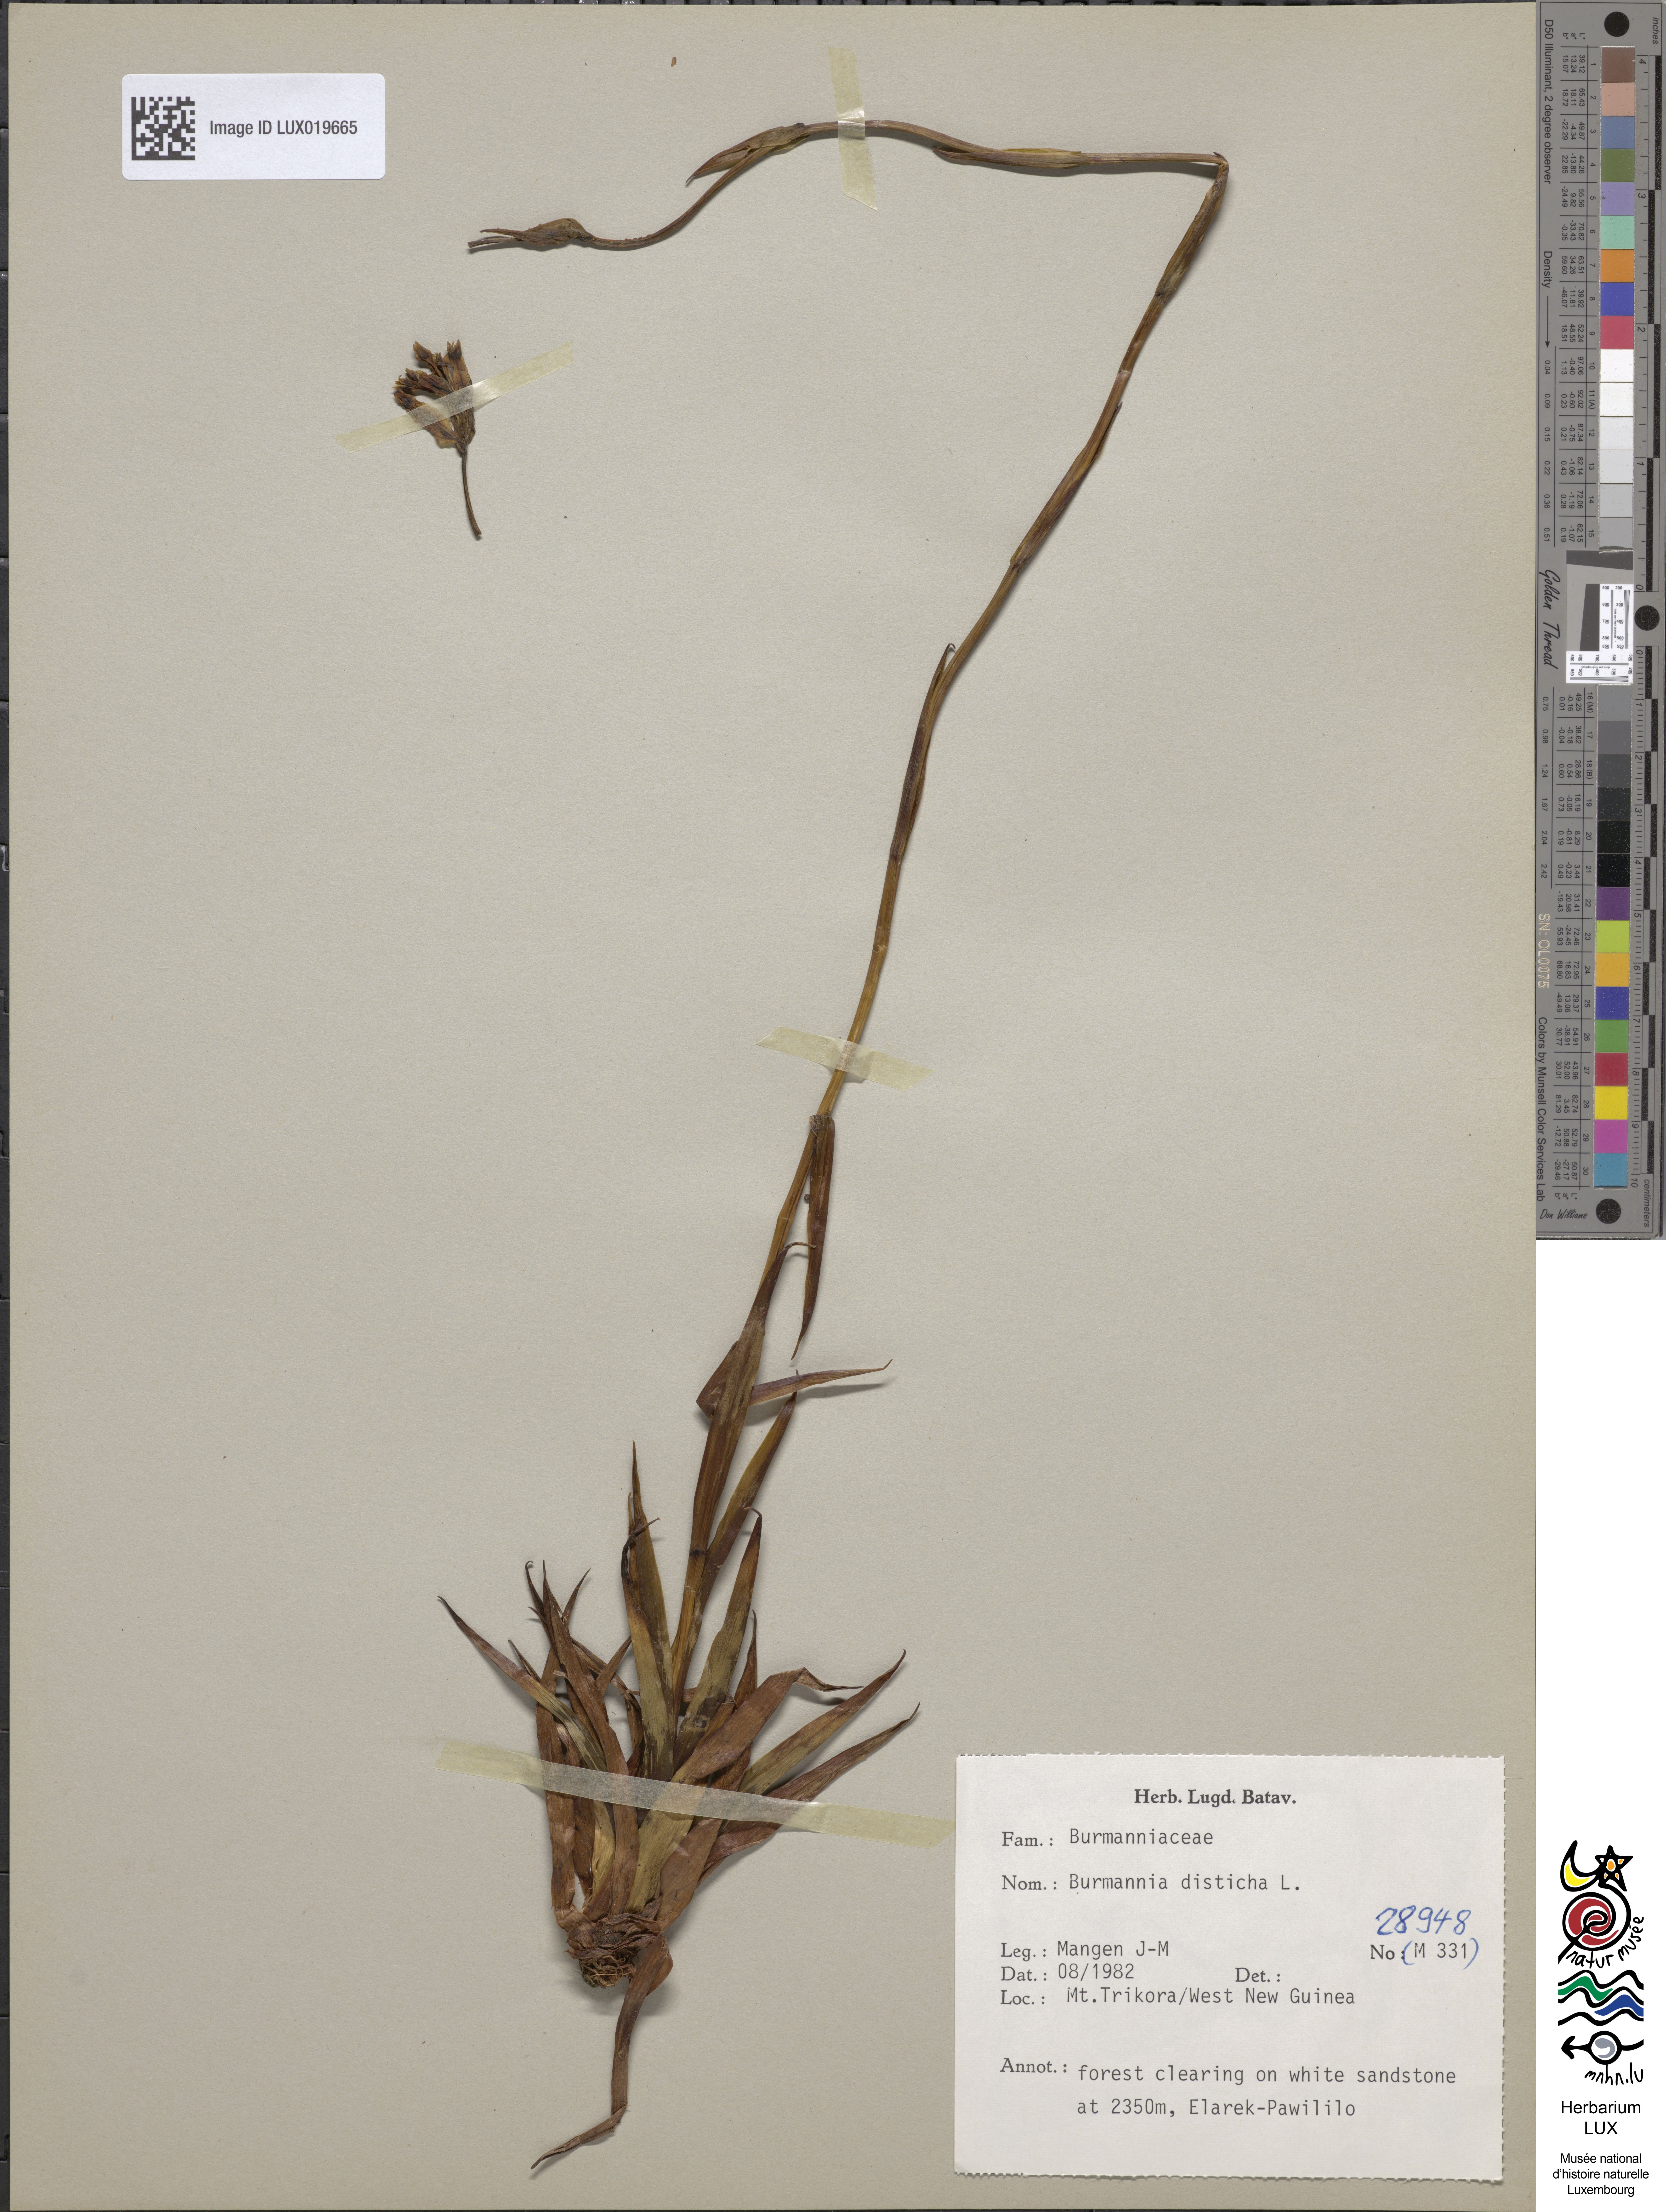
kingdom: Plantae
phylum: Tracheophyta
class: Liliopsida
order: Dioscoreales
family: Burmanniaceae
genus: Burmannia
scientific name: Burmannia disticha
